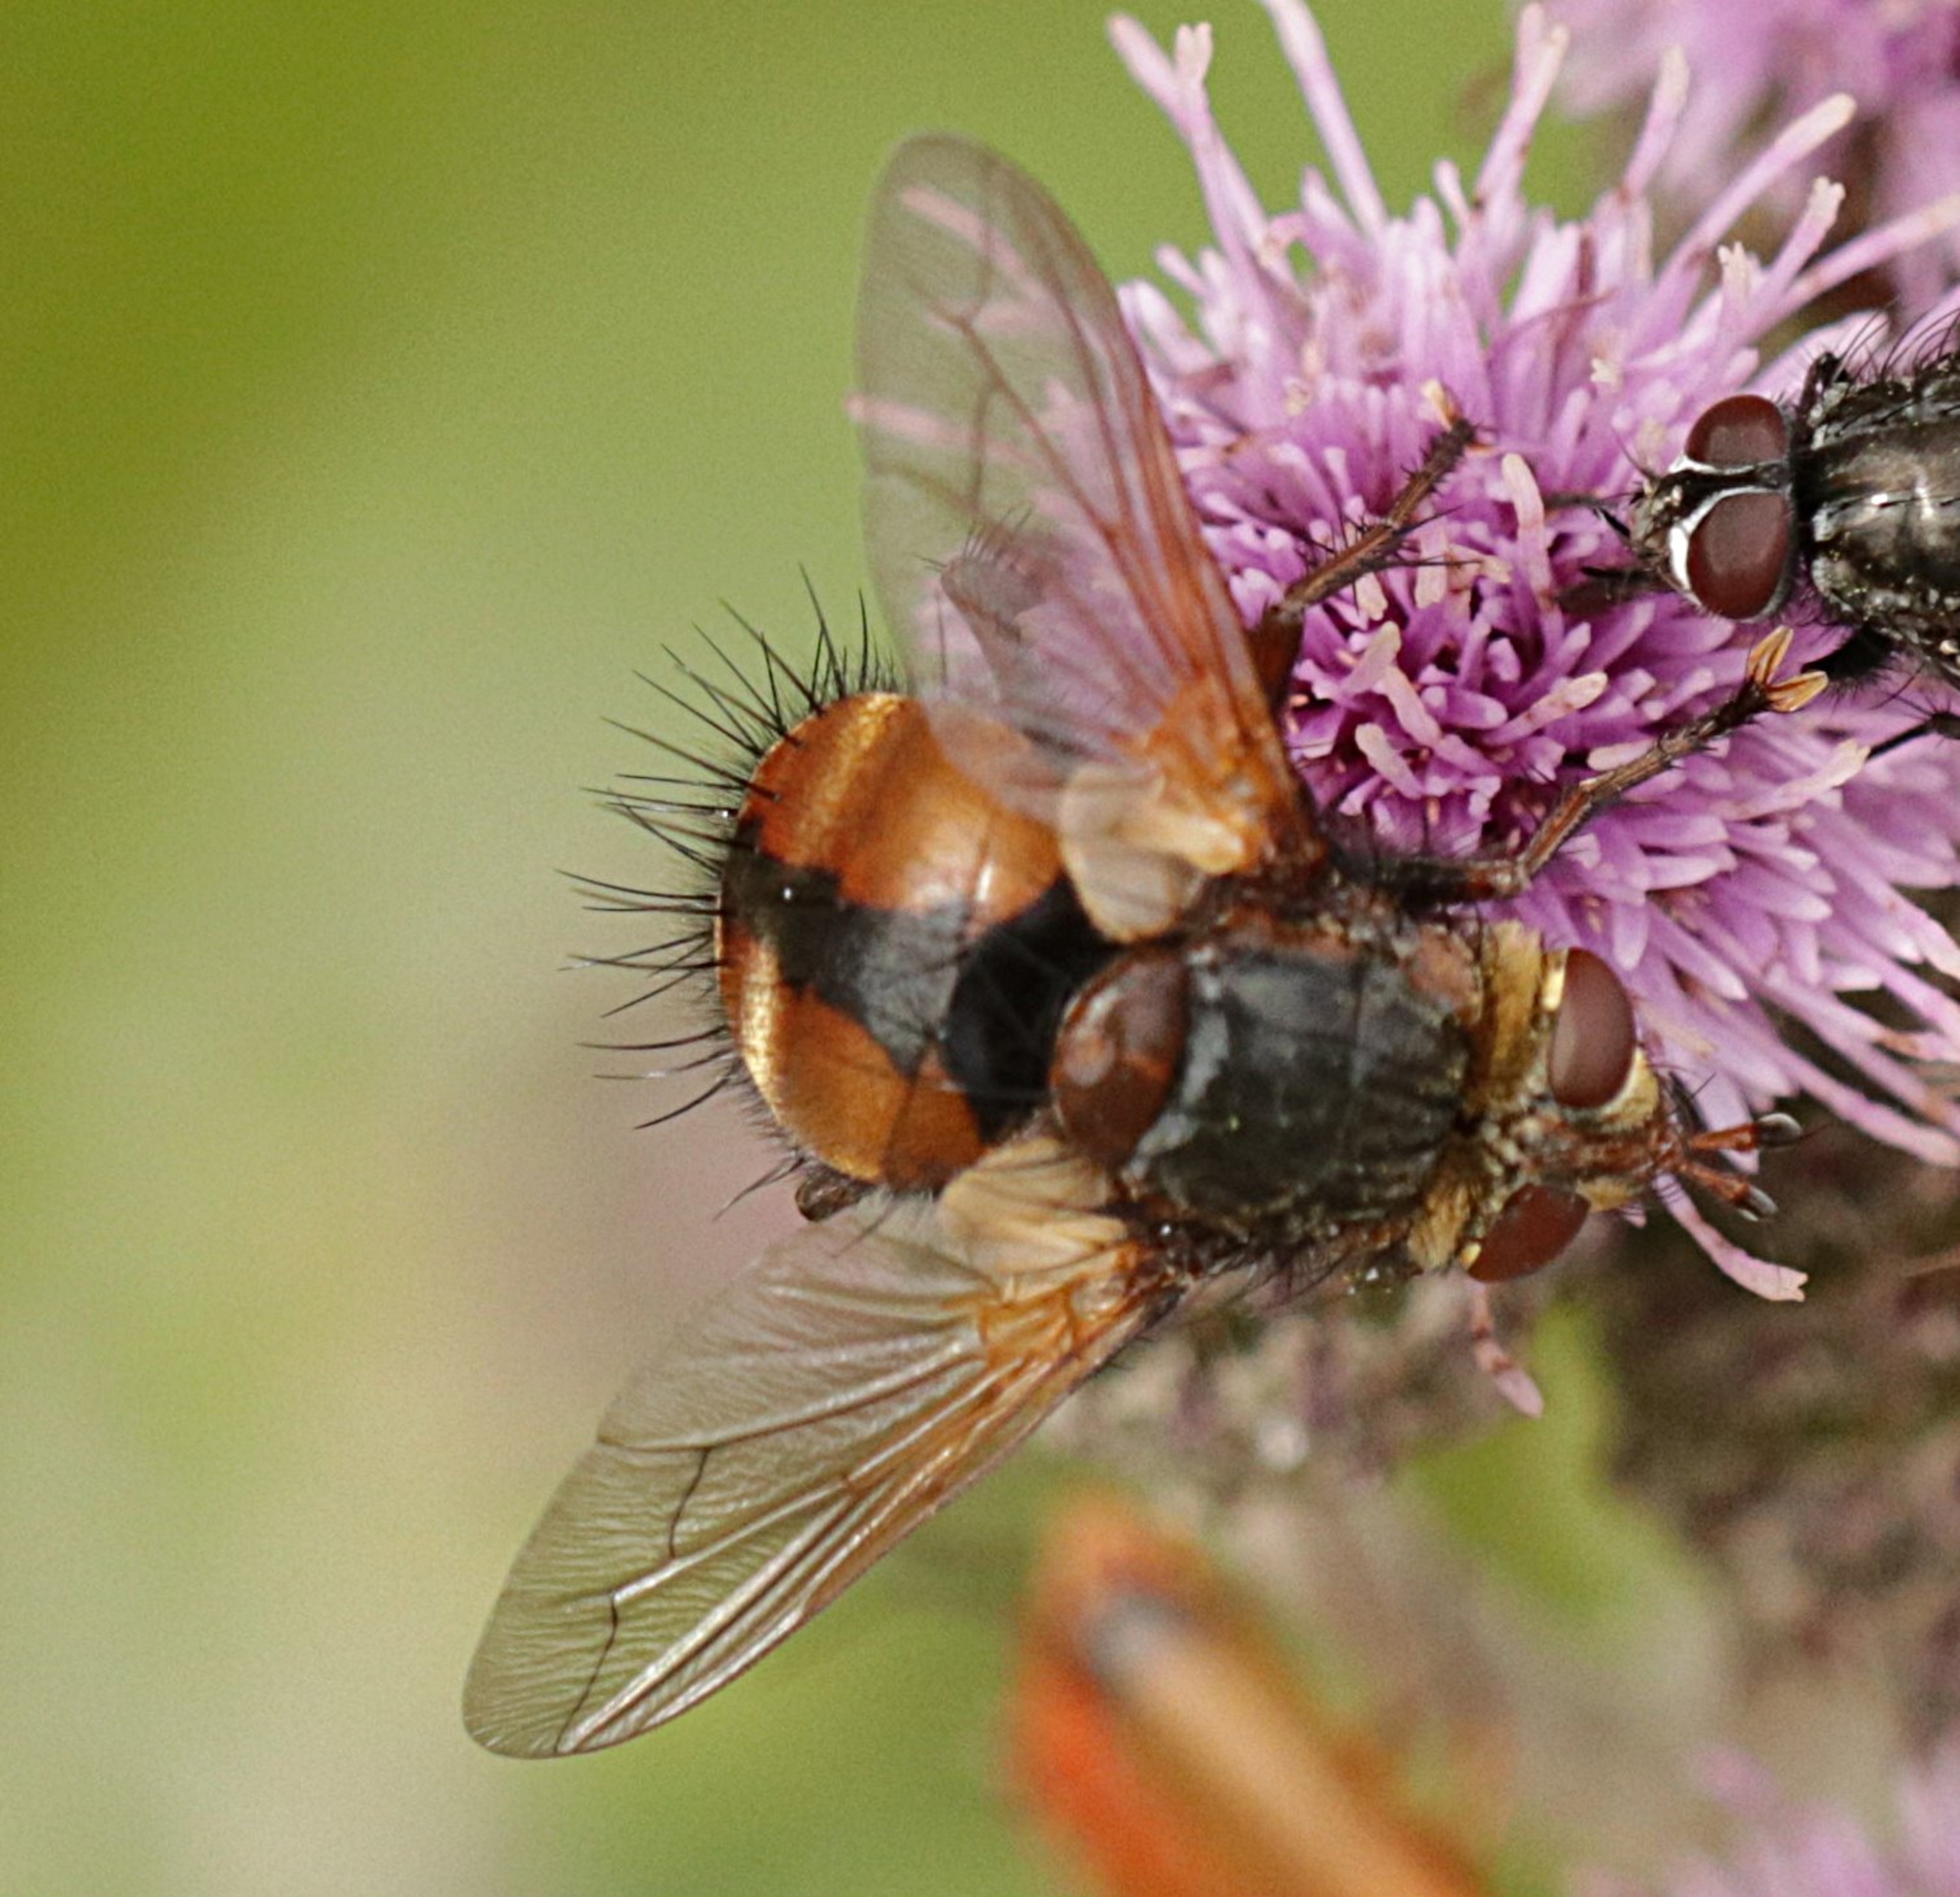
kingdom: Animalia
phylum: Arthropoda
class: Insecta
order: Diptera
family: Tachinidae
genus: Tachina
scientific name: Tachina fera
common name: Mellemfluen oskar
